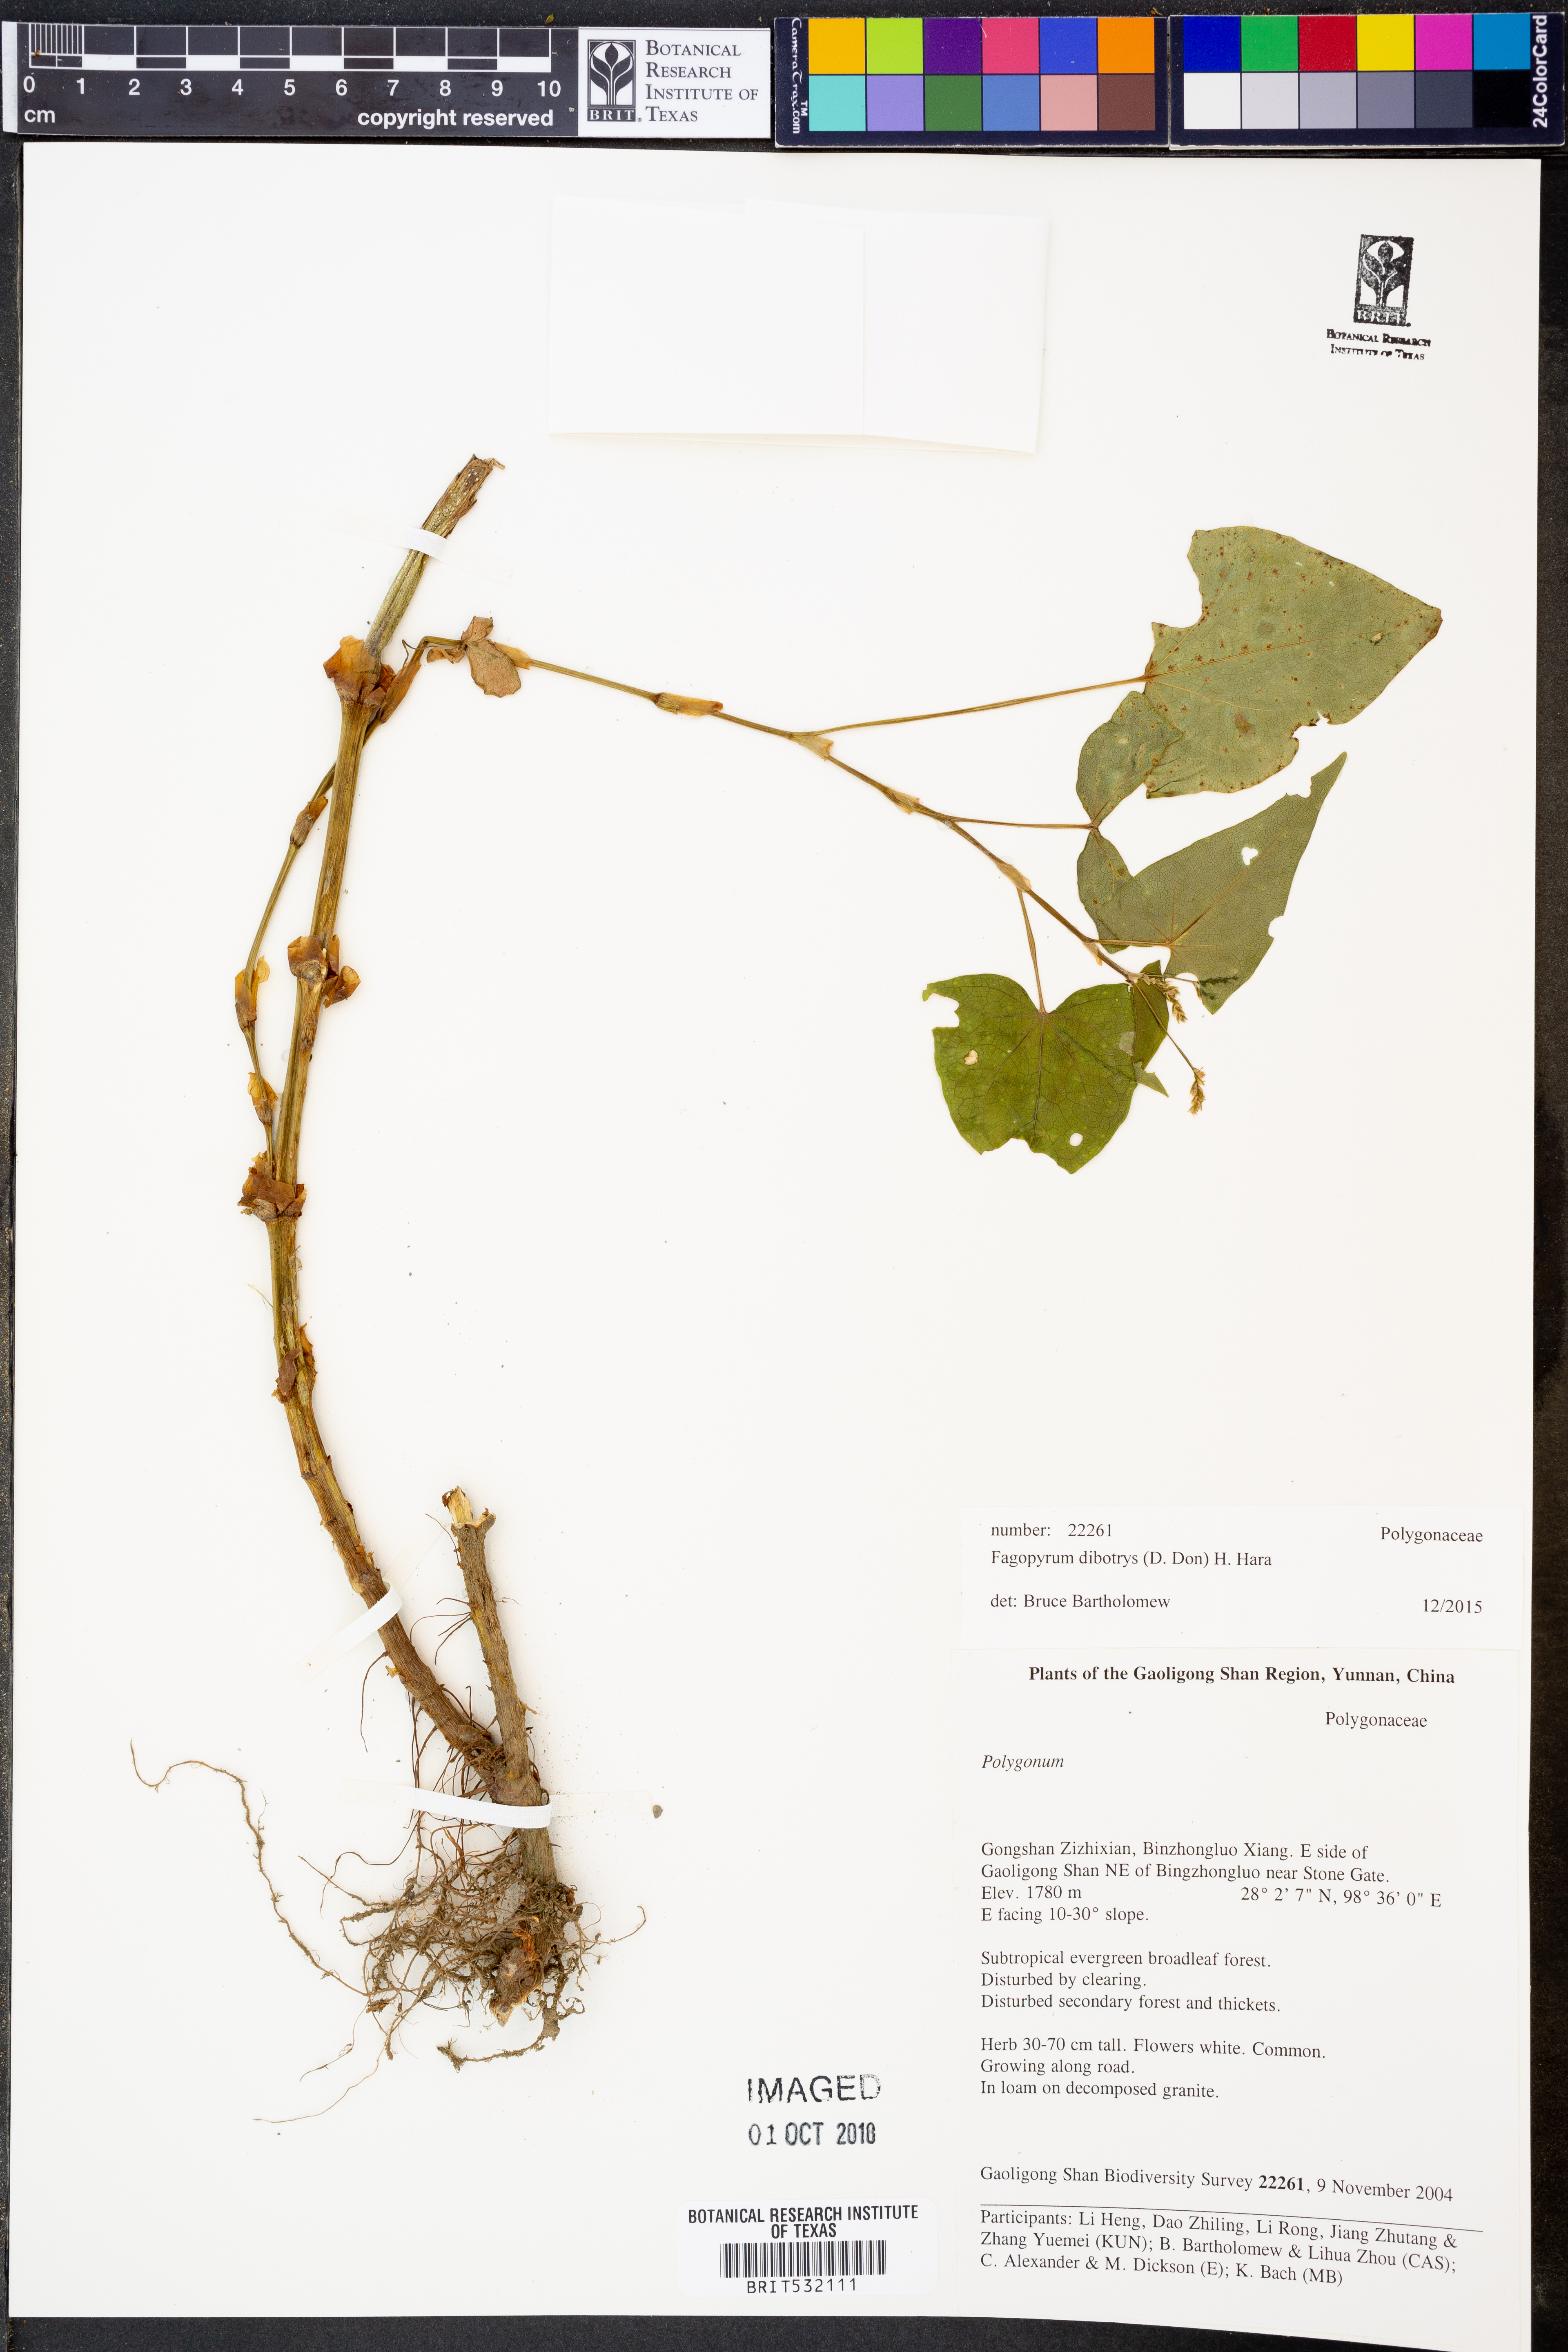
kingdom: Plantae
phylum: Tracheophyta
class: Magnoliopsida
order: Caryophyllales
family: Polygonaceae
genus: Fagopyrum
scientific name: Fagopyrum cymosum
